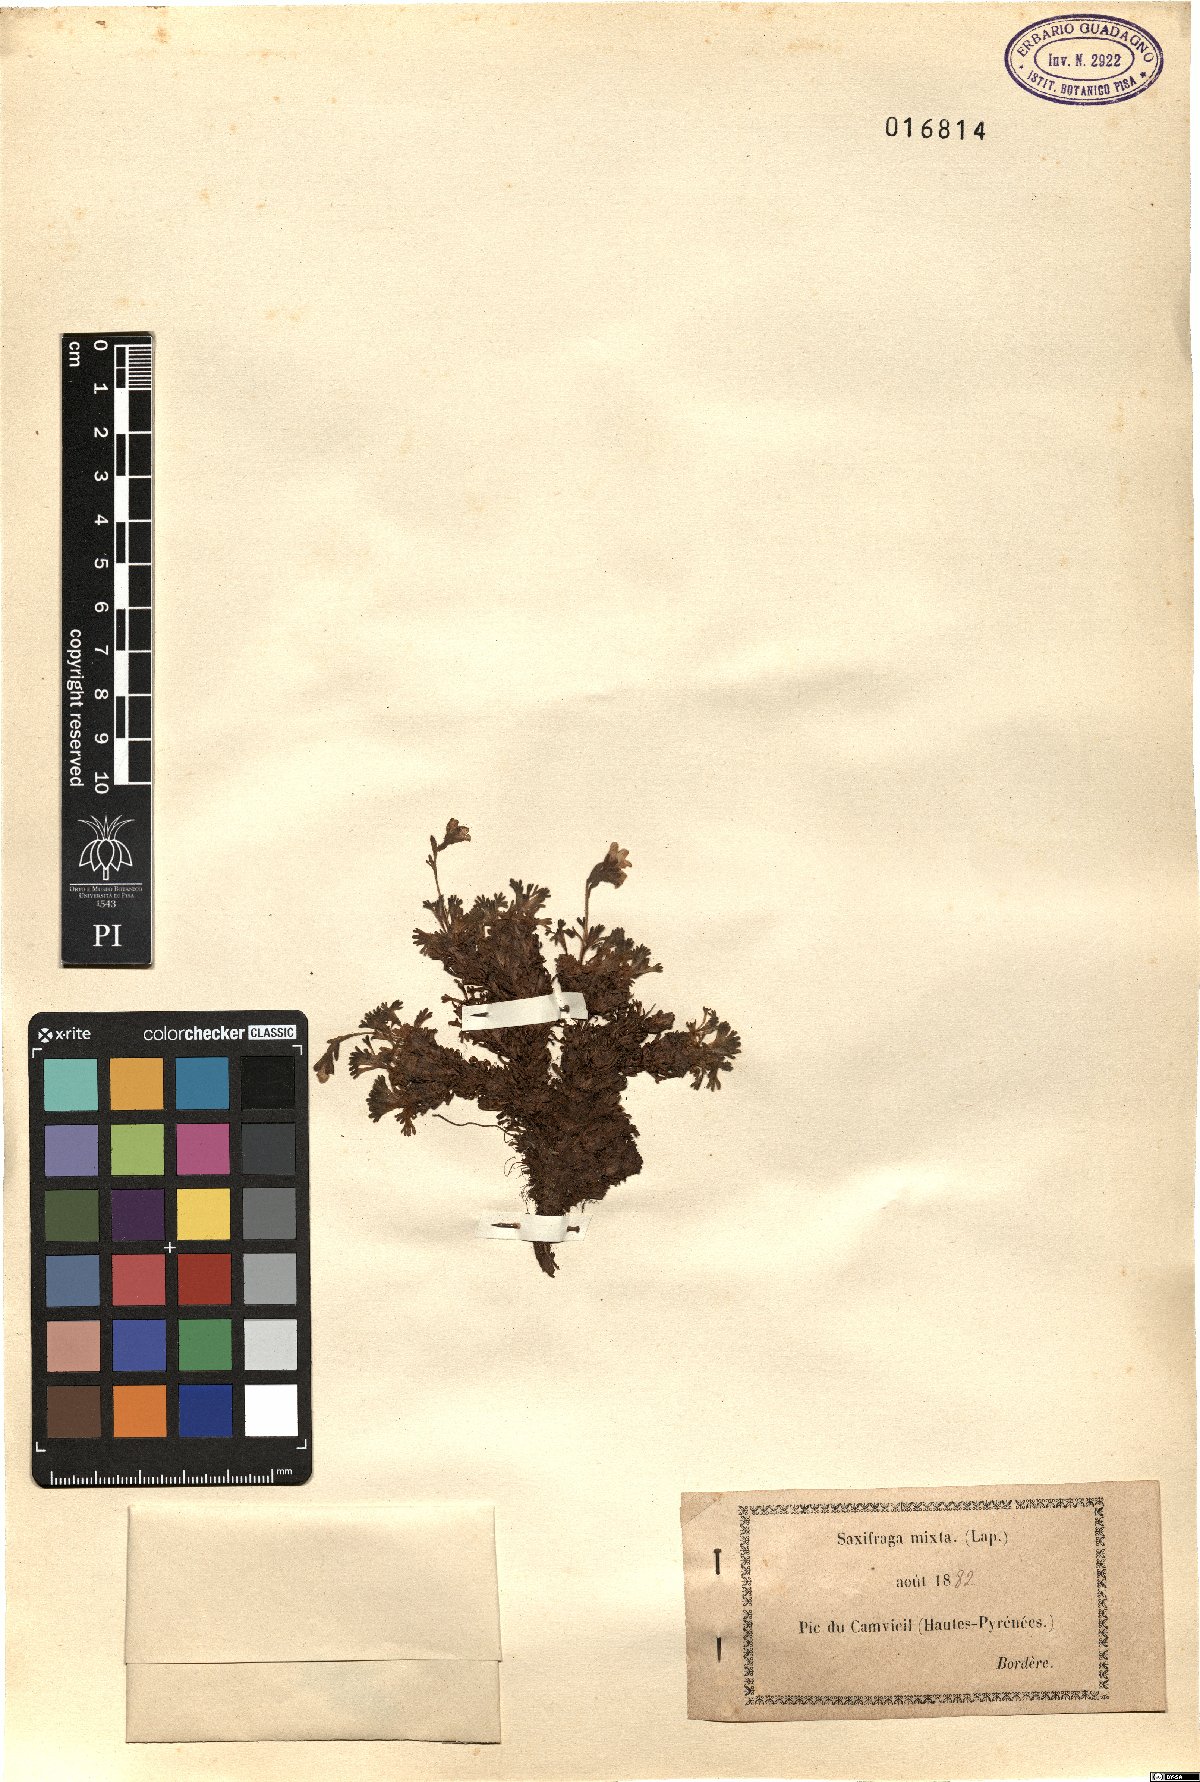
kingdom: Plantae
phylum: Tracheophyta
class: Magnoliopsida
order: Saxifragales
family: Saxifragaceae
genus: Saxifraga
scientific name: Saxifraga pubescens
